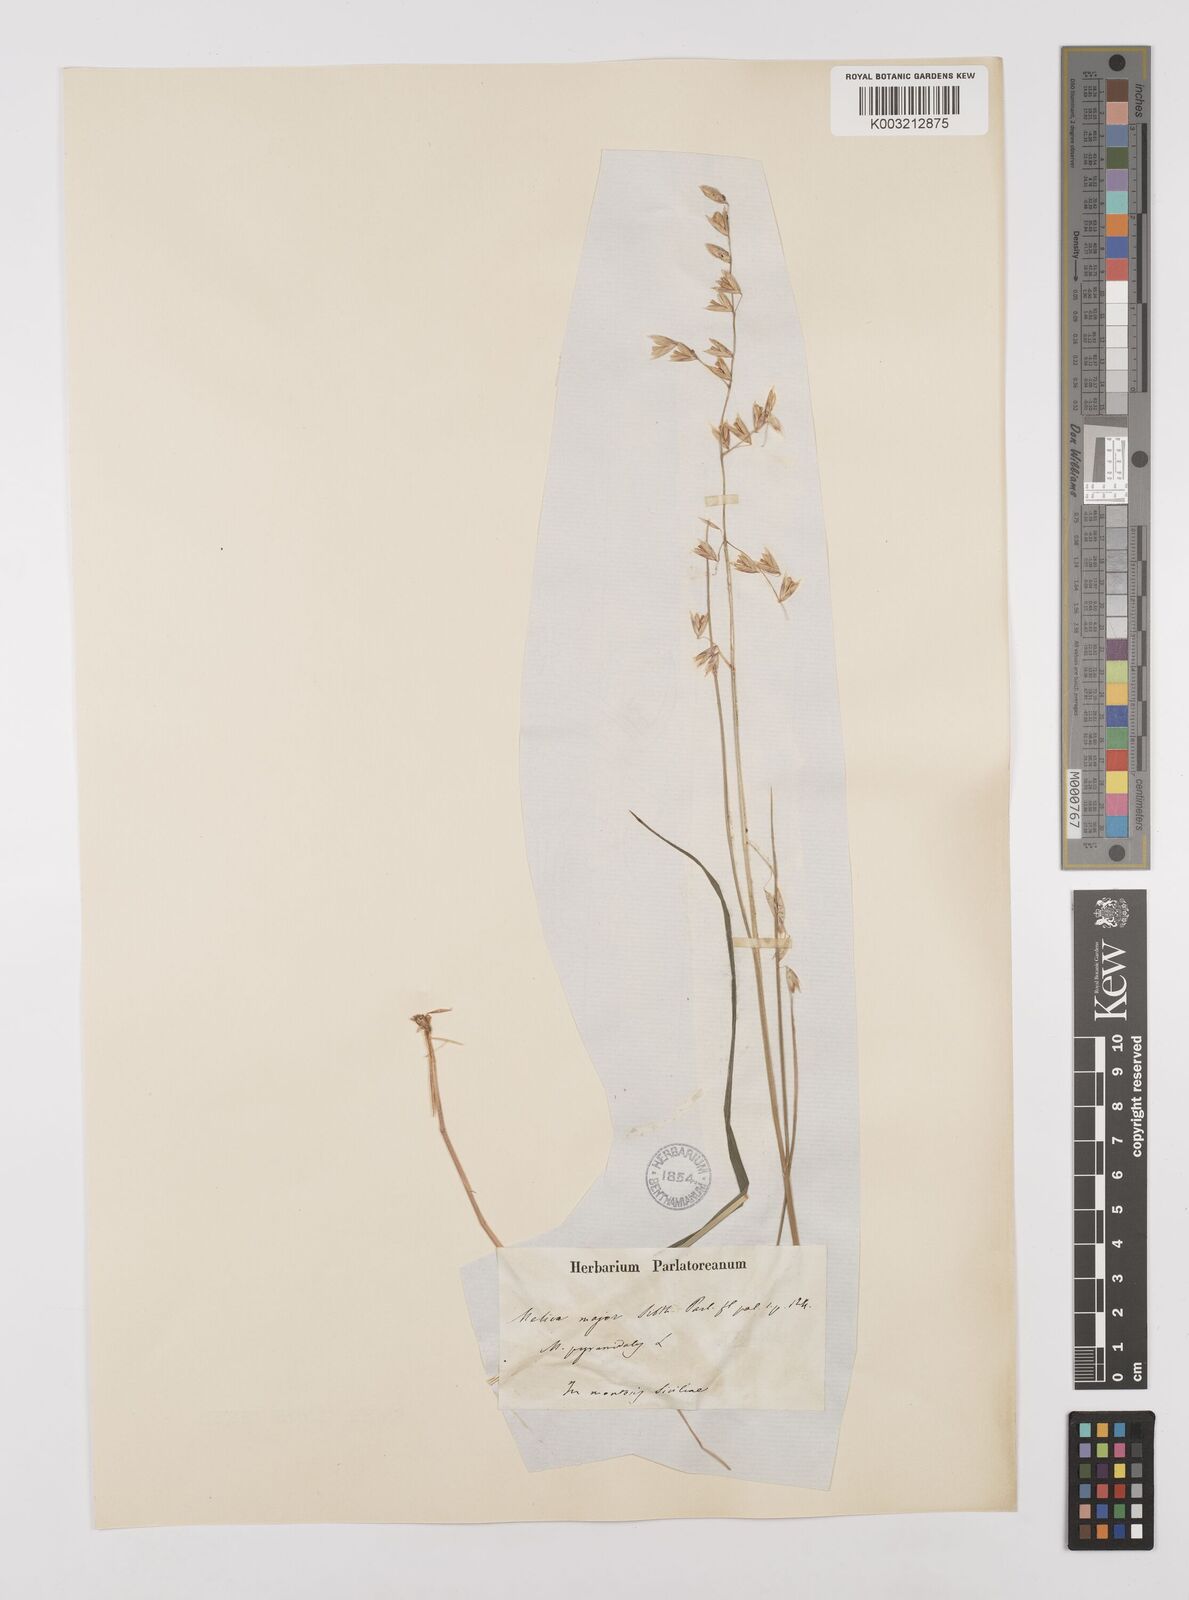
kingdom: Plantae
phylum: Tracheophyta
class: Liliopsida
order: Poales
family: Poaceae
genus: Melica
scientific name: Melica minuta
